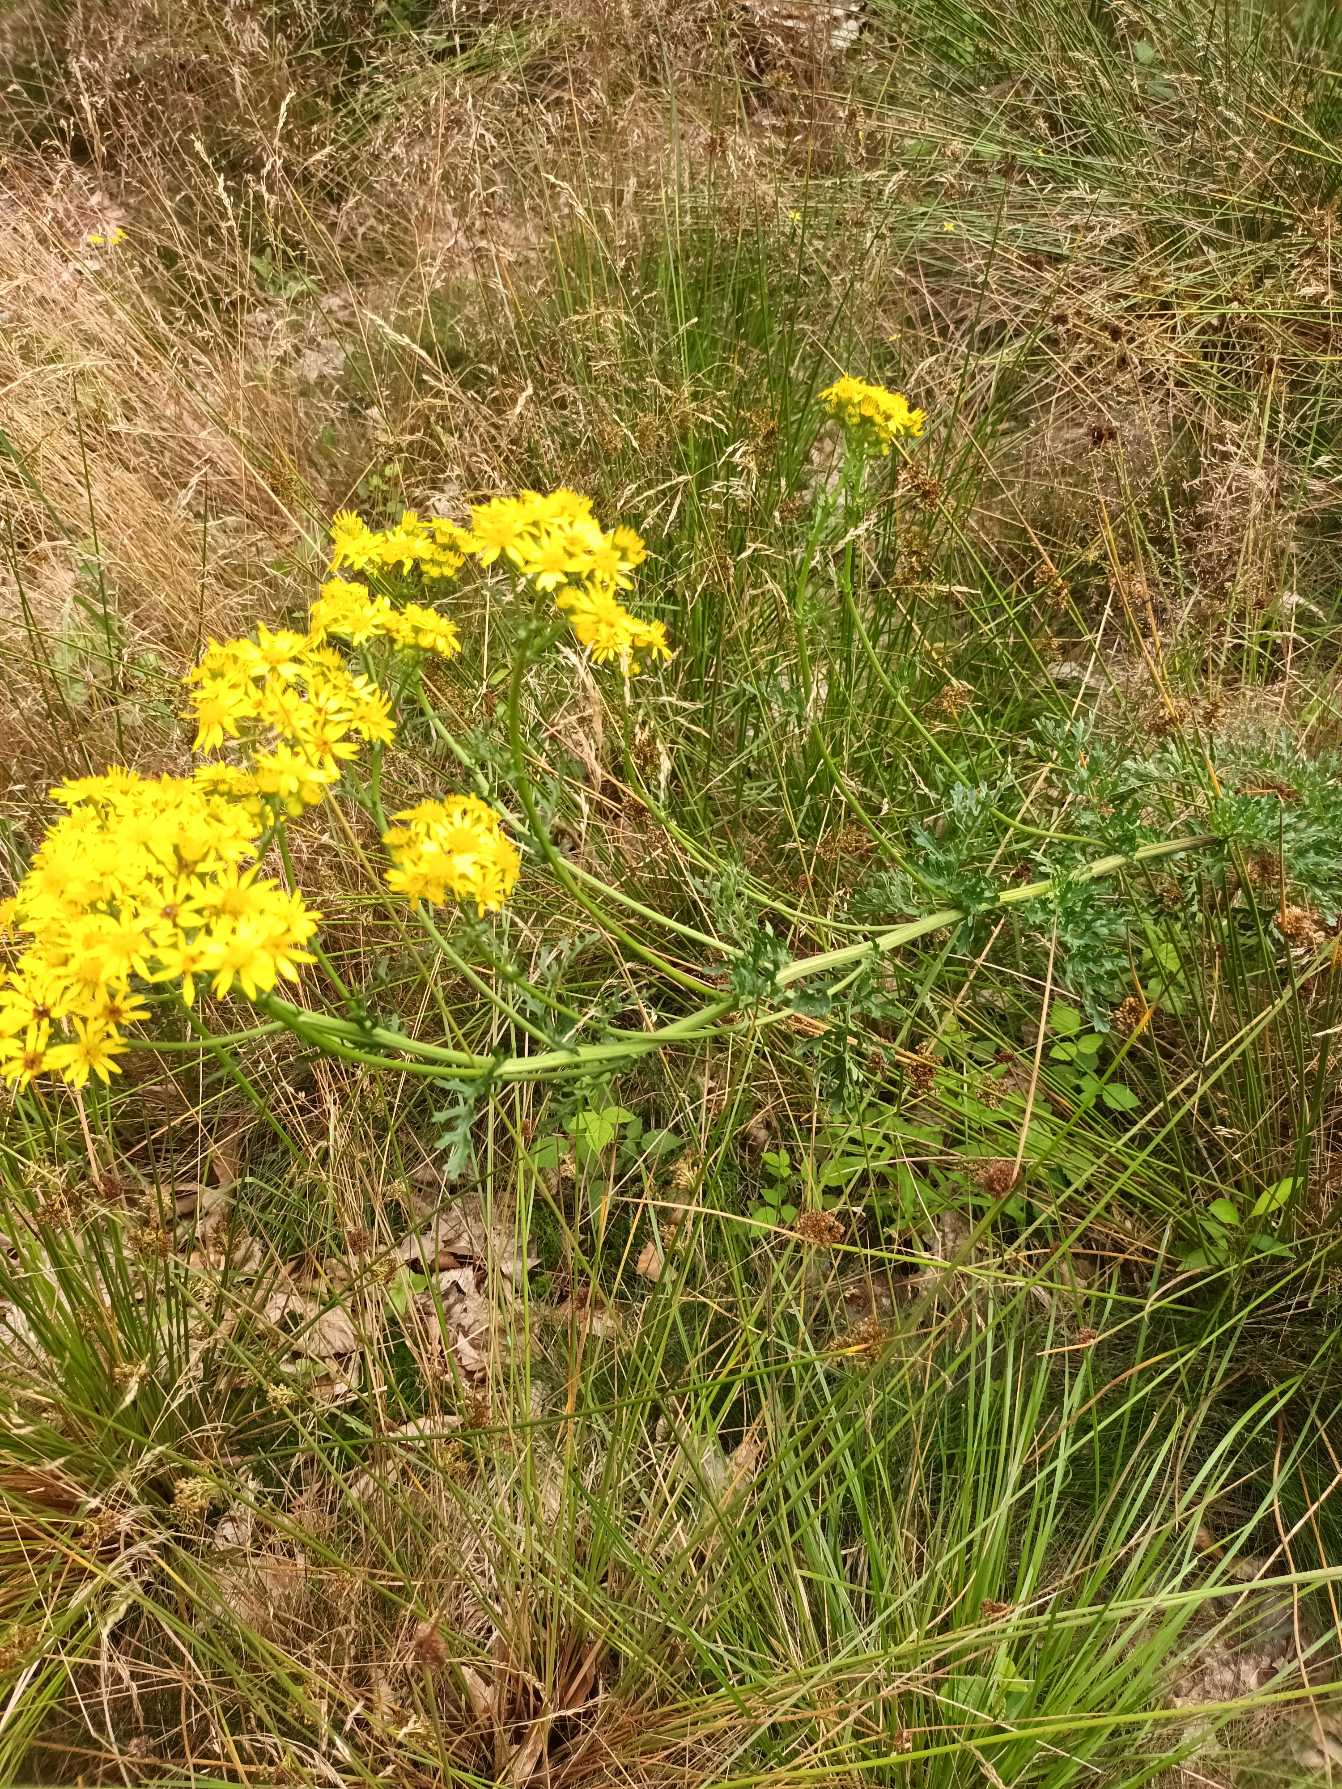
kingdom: Plantae
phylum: Tracheophyta
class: Magnoliopsida
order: Asterales
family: Asteraceae
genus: Jacobaea
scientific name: Jacobaea vulgaris
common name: Eng-brandbæger
